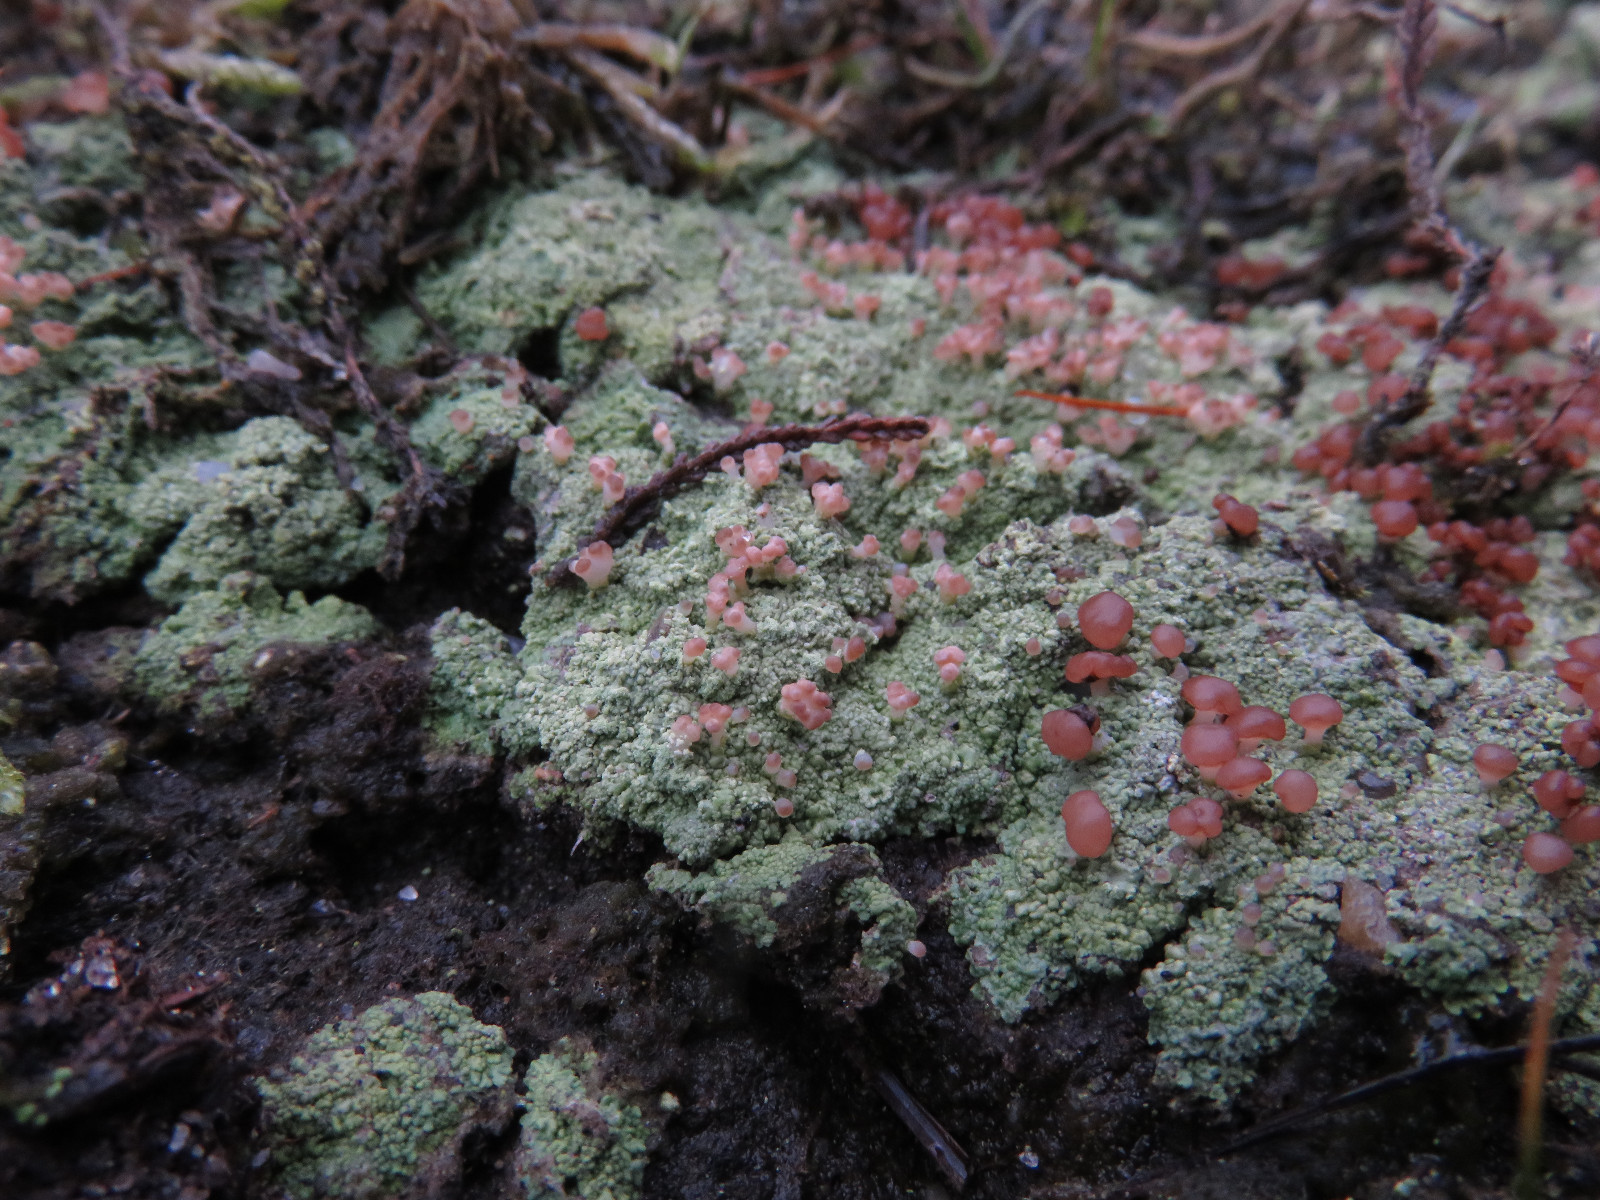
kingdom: Fungi
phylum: Ascomycota
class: Lecanoromycetes
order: Baeomycetales
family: Baeomycetaceae
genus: Baeomyces
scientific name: Baeomyces rufus
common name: rødbrun svampelav
